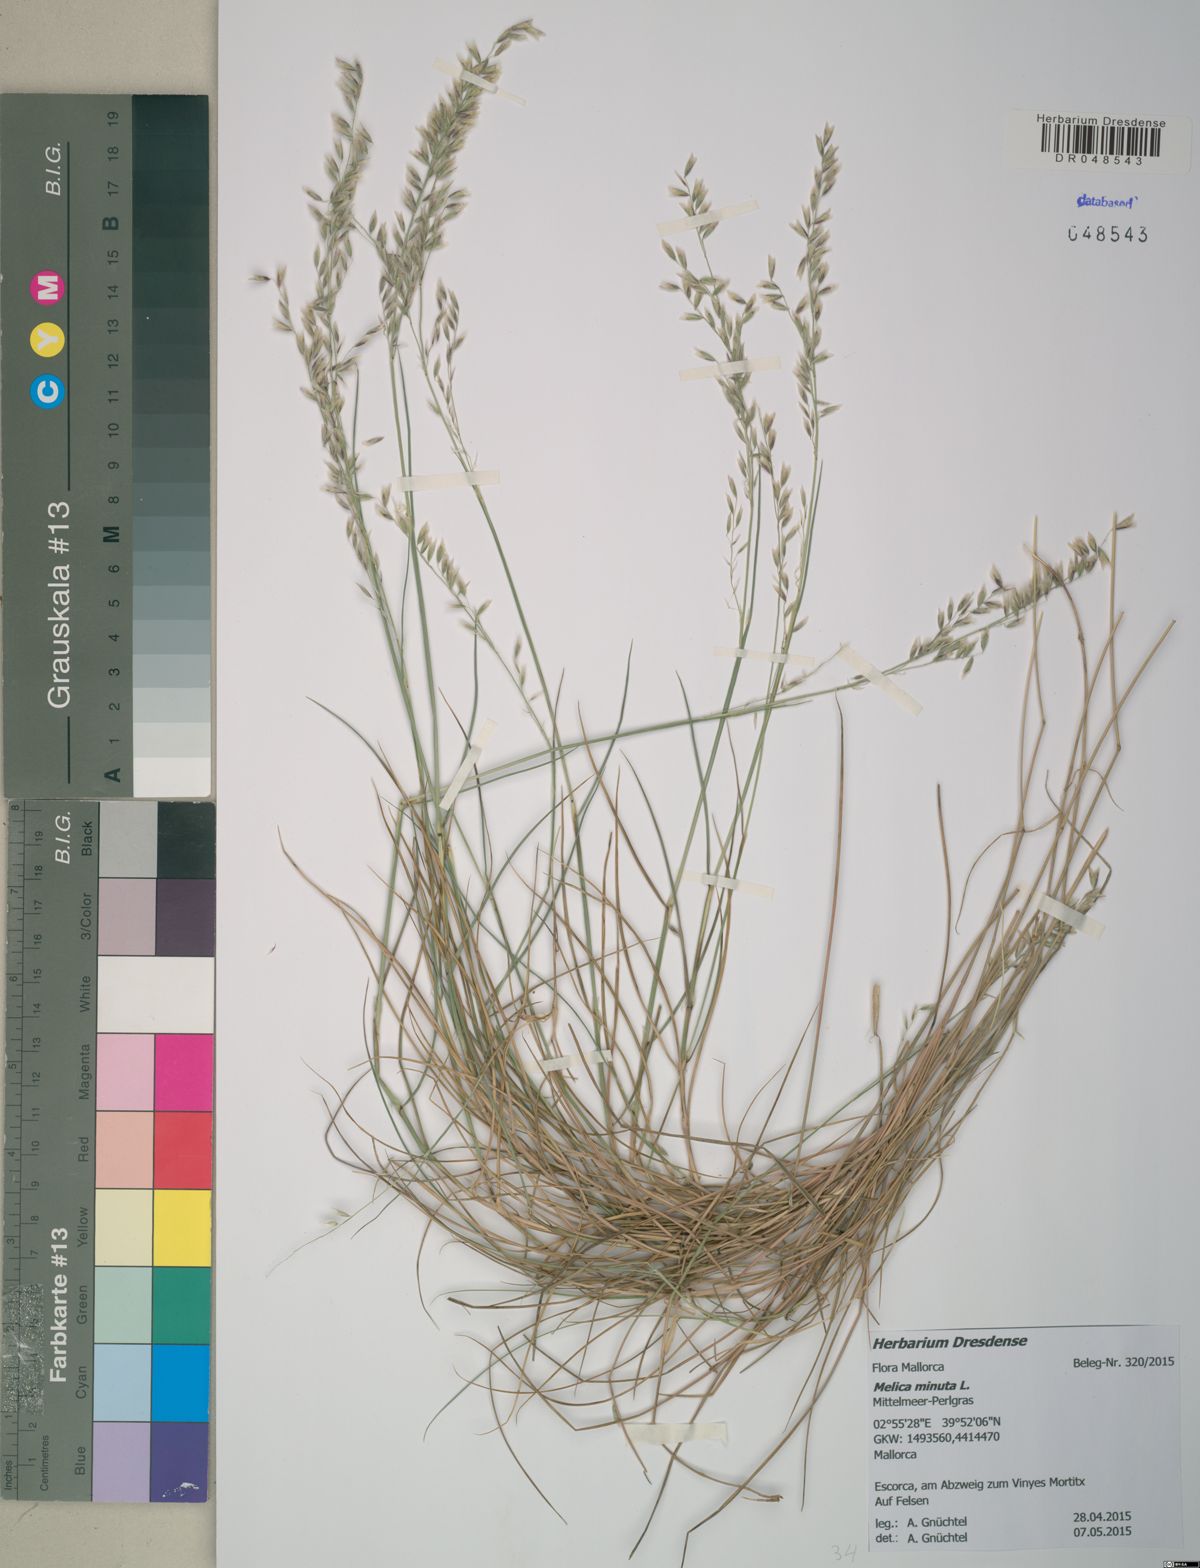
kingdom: Plantae
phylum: Tracheophyta
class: Liliopsida
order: Poales
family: Poaceae
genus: Melica
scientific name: Melica minuta
